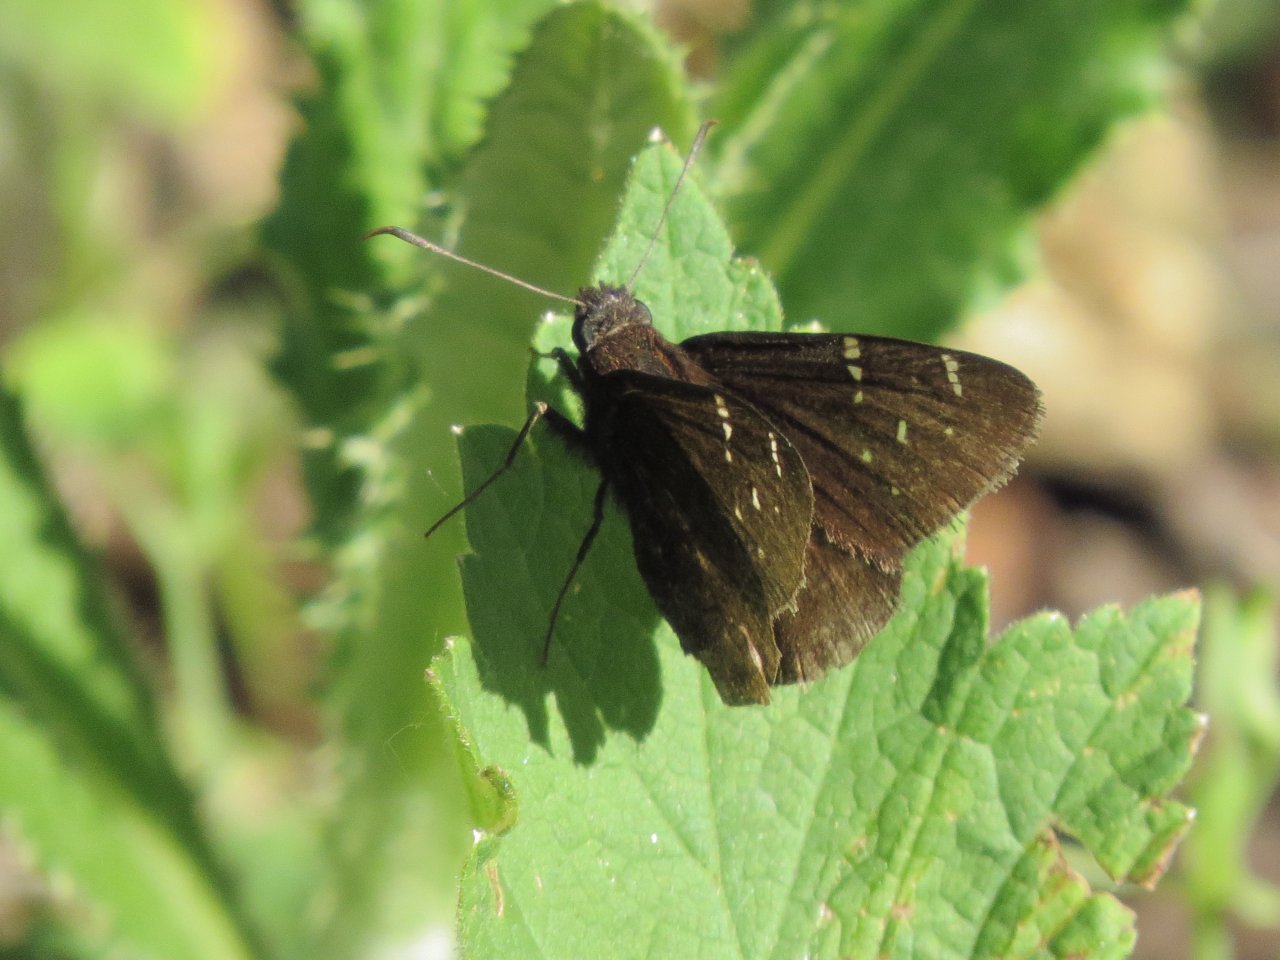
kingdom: Animalia
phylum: Arthropoda
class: Insecta
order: Lepidoptera
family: Hesperiidae
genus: Autochton
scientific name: Autochton
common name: Northern Cloudywing
